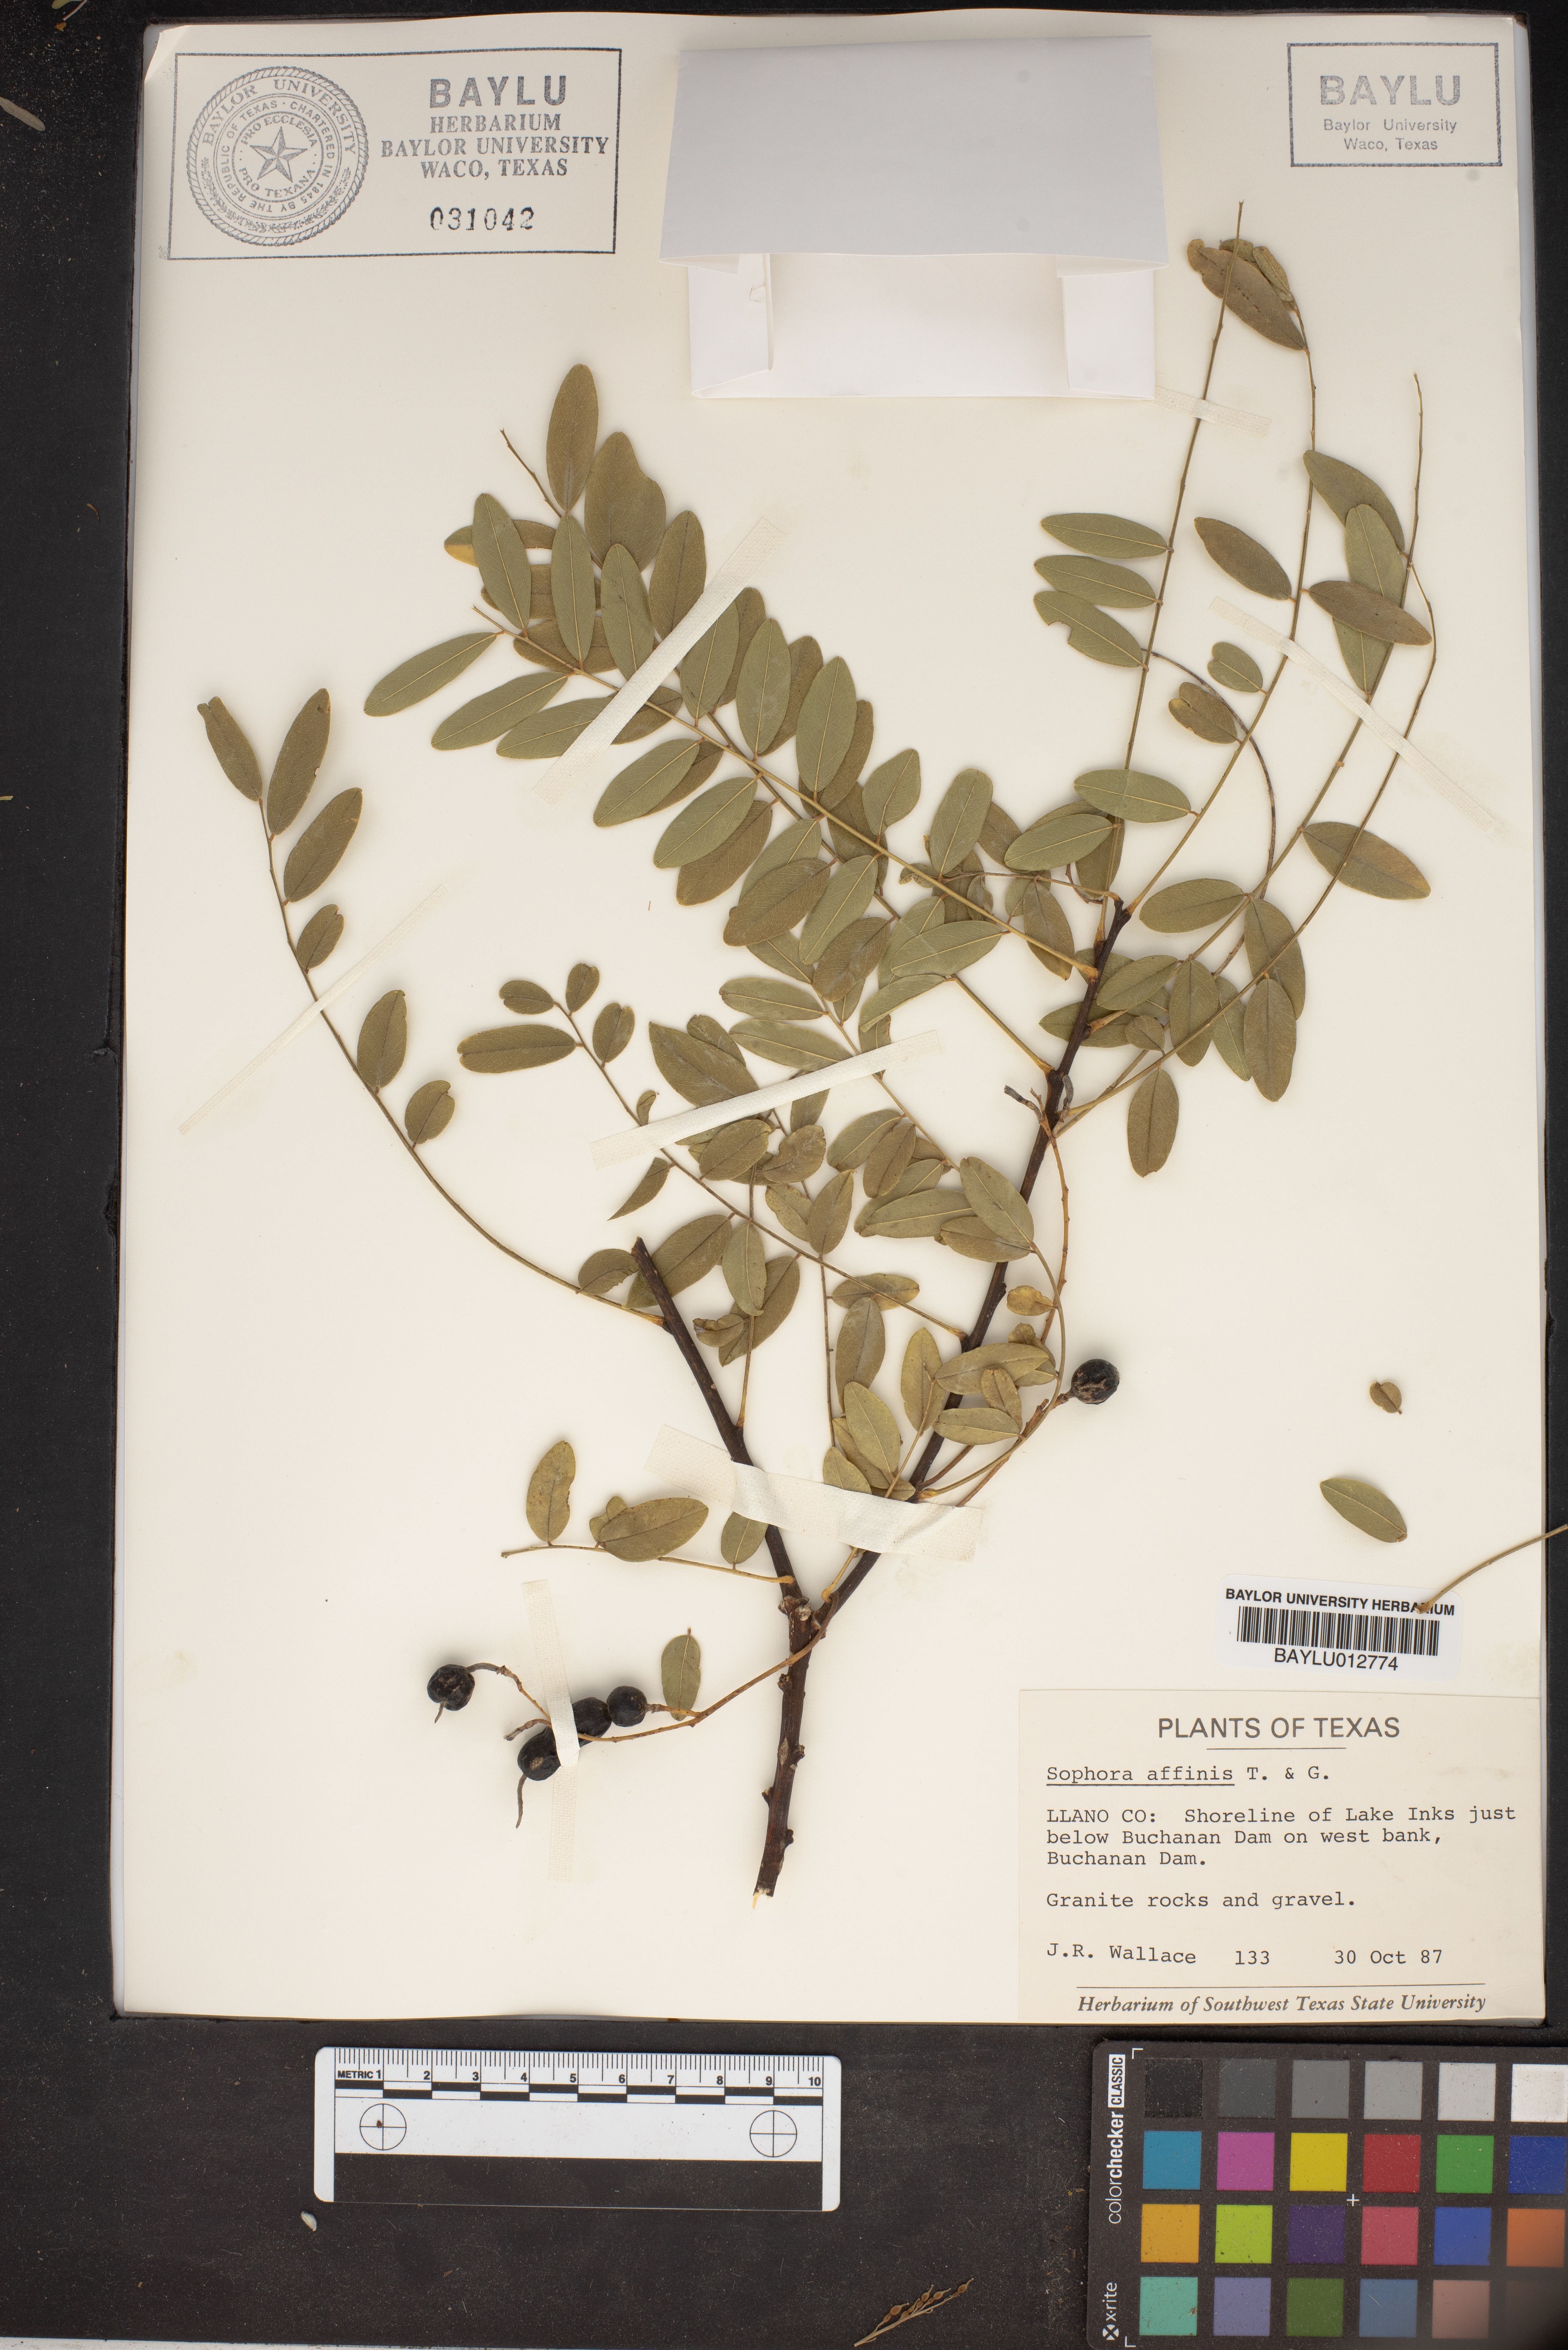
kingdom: Plantae
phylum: Tracheophyta
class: Magnoliopsida
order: Fabales
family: Fabaceae
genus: Styphnolobium
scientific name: Styphnolobium affine
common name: Texas sophora
